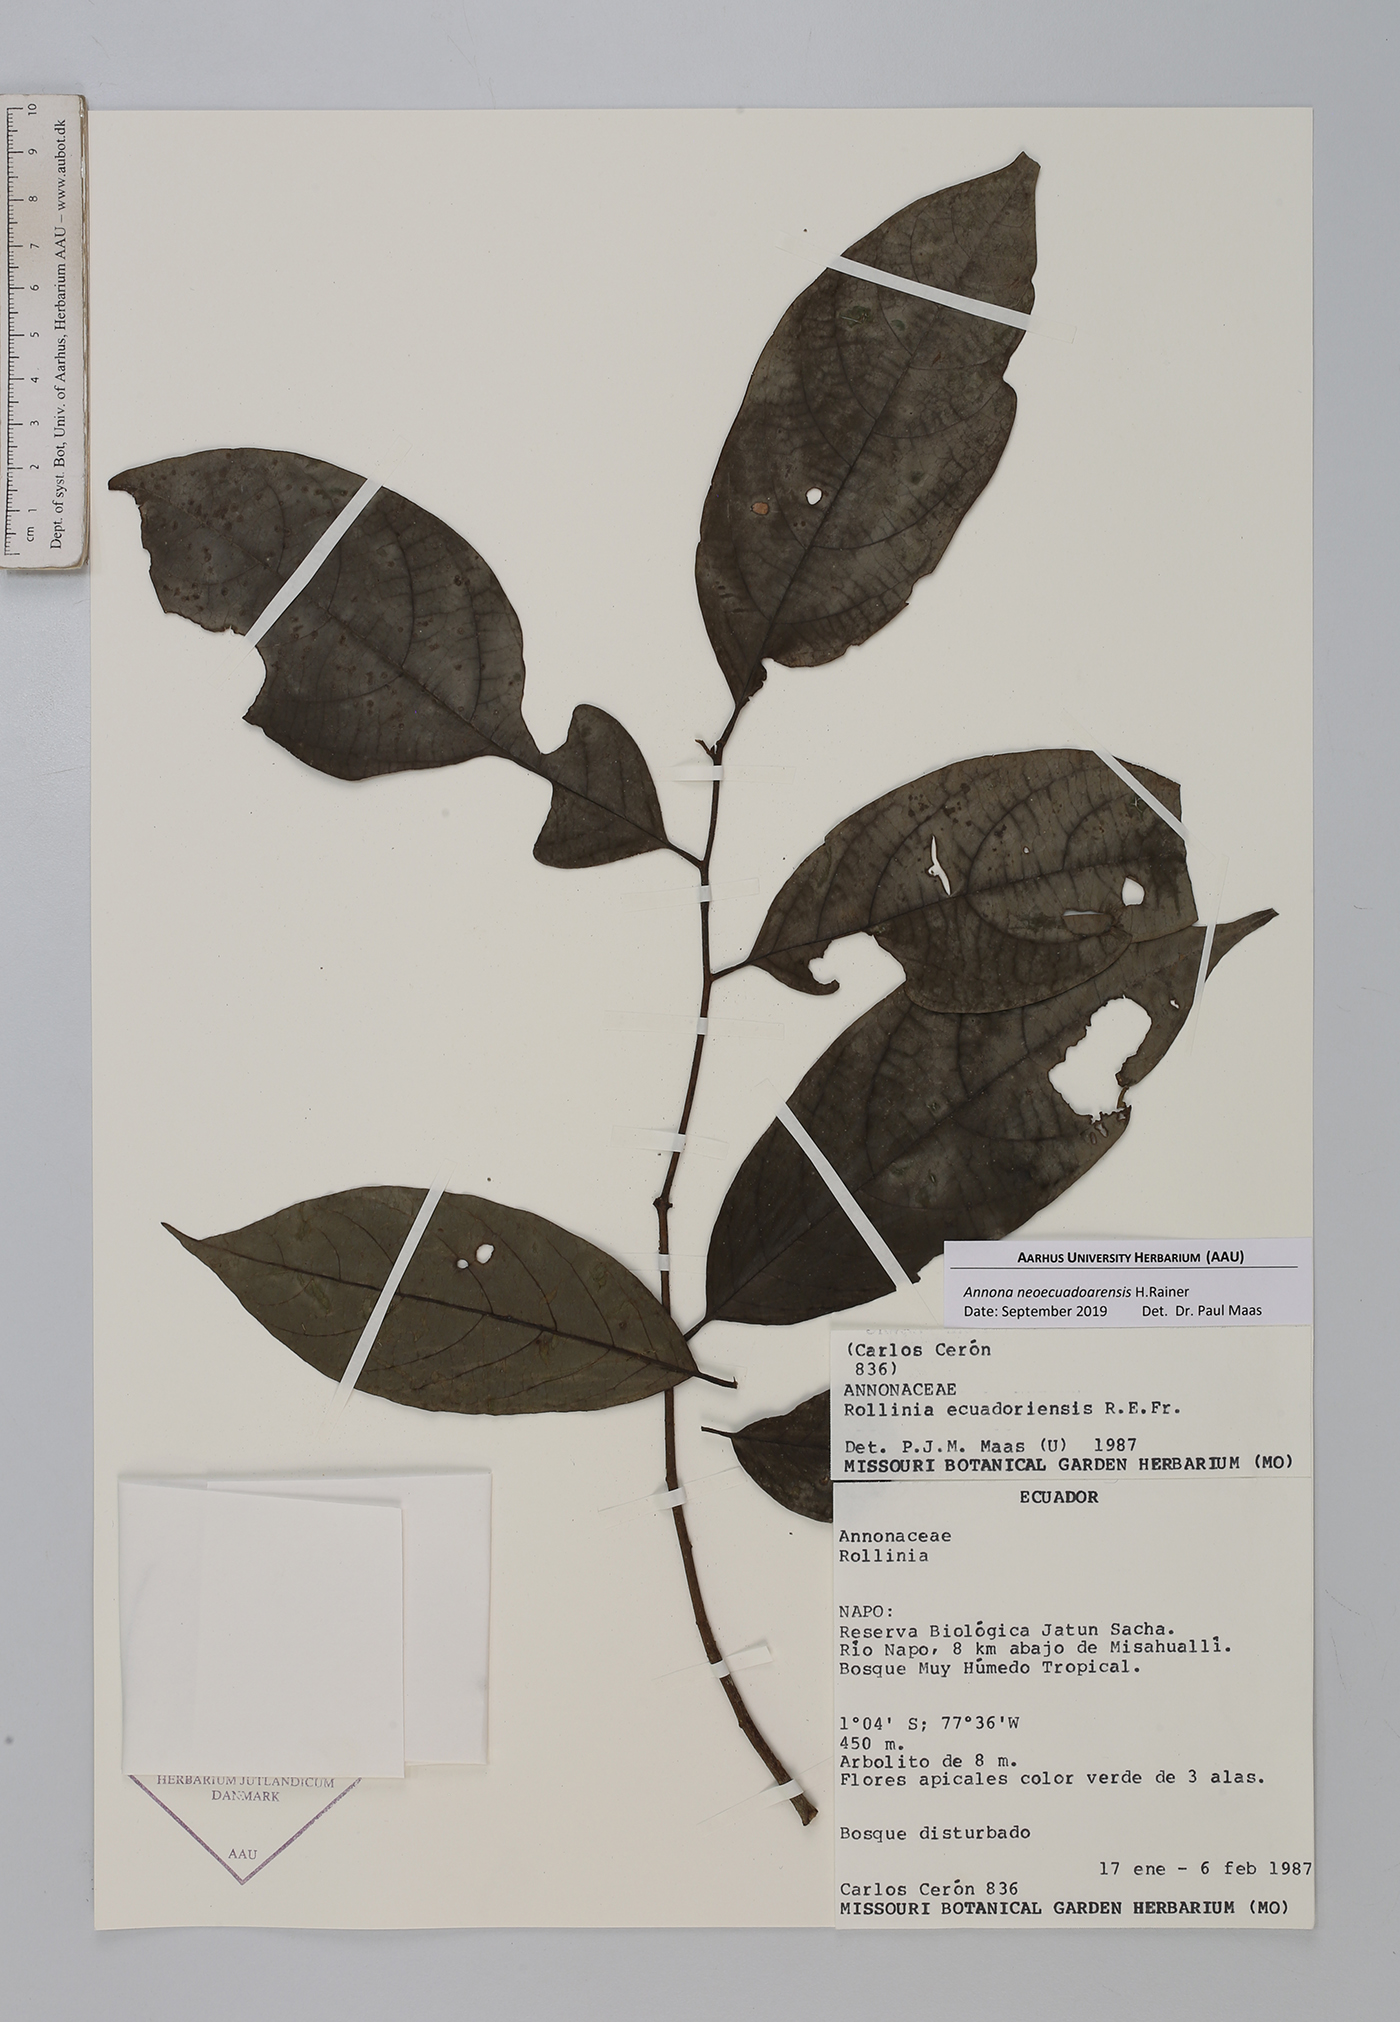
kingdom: Plantae
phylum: Tracheophyta
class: Magnoliopsida
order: Magnoliales
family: Annonaceae
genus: Annona
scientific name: Annona neoecuadoarensis
